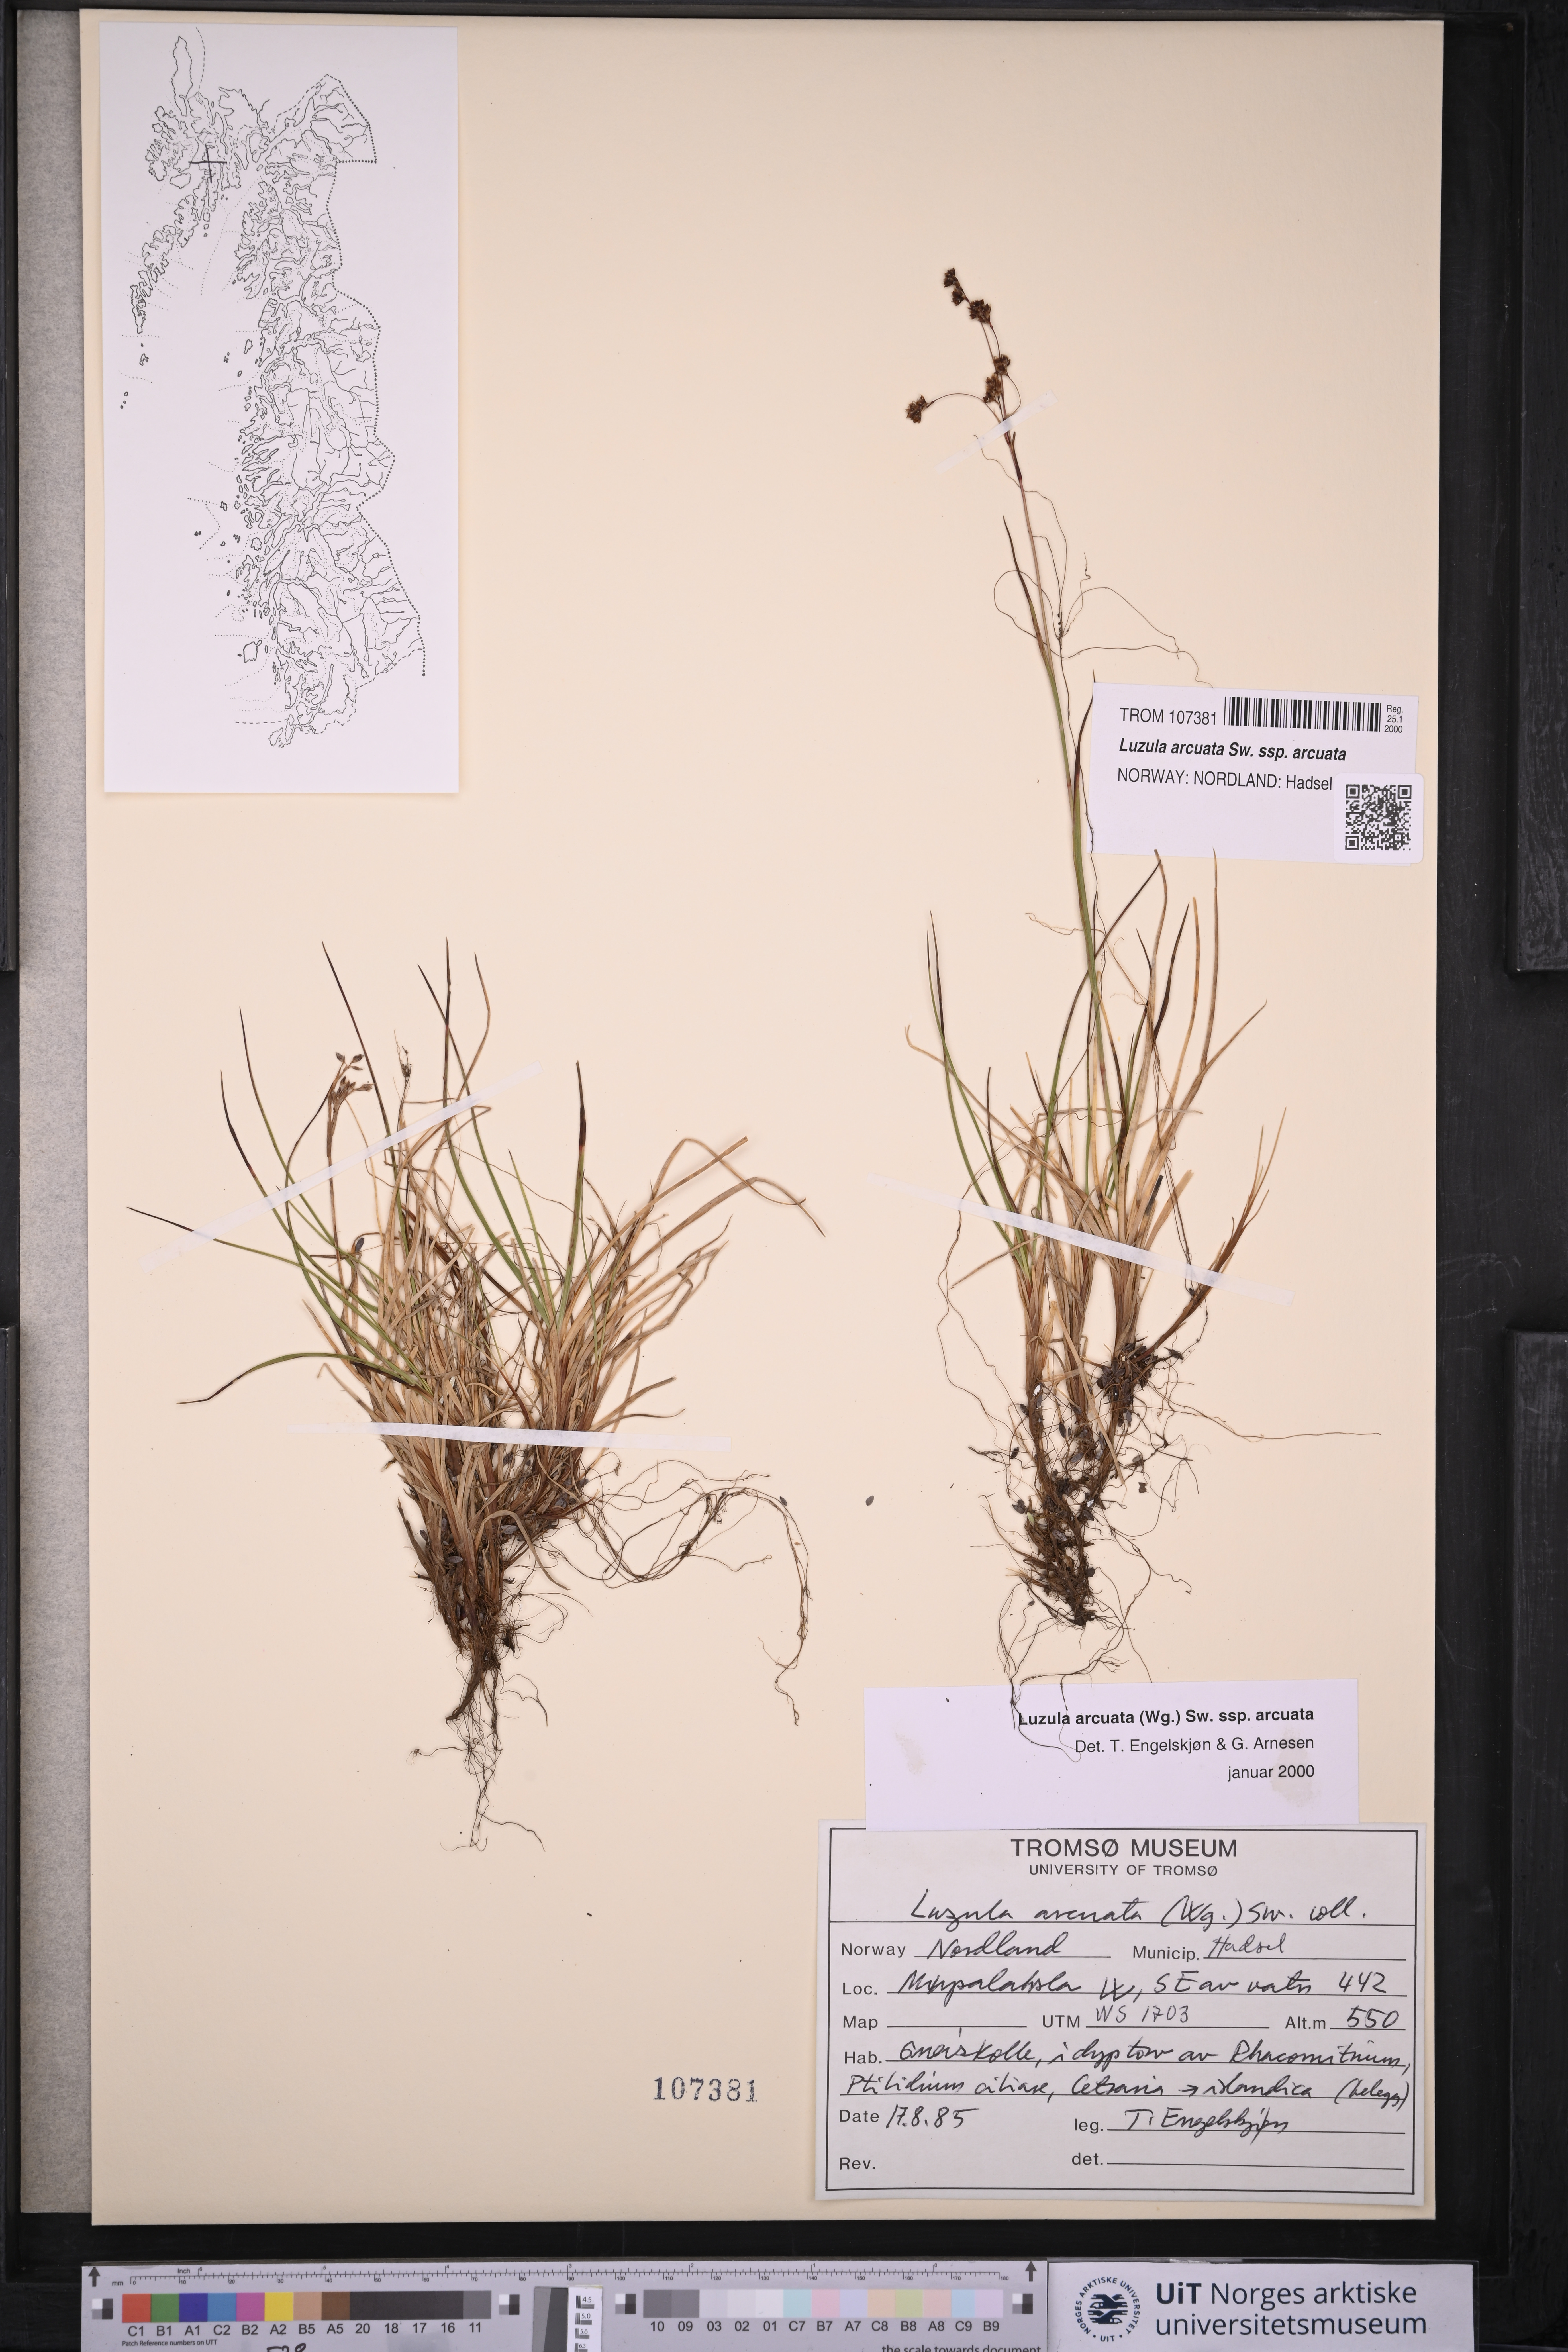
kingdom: Plantae
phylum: Tracheophyta
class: Liliopsida
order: Poales
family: Juncaceae
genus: Luzula
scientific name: Luzula arcuata
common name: Curved wood-rush
